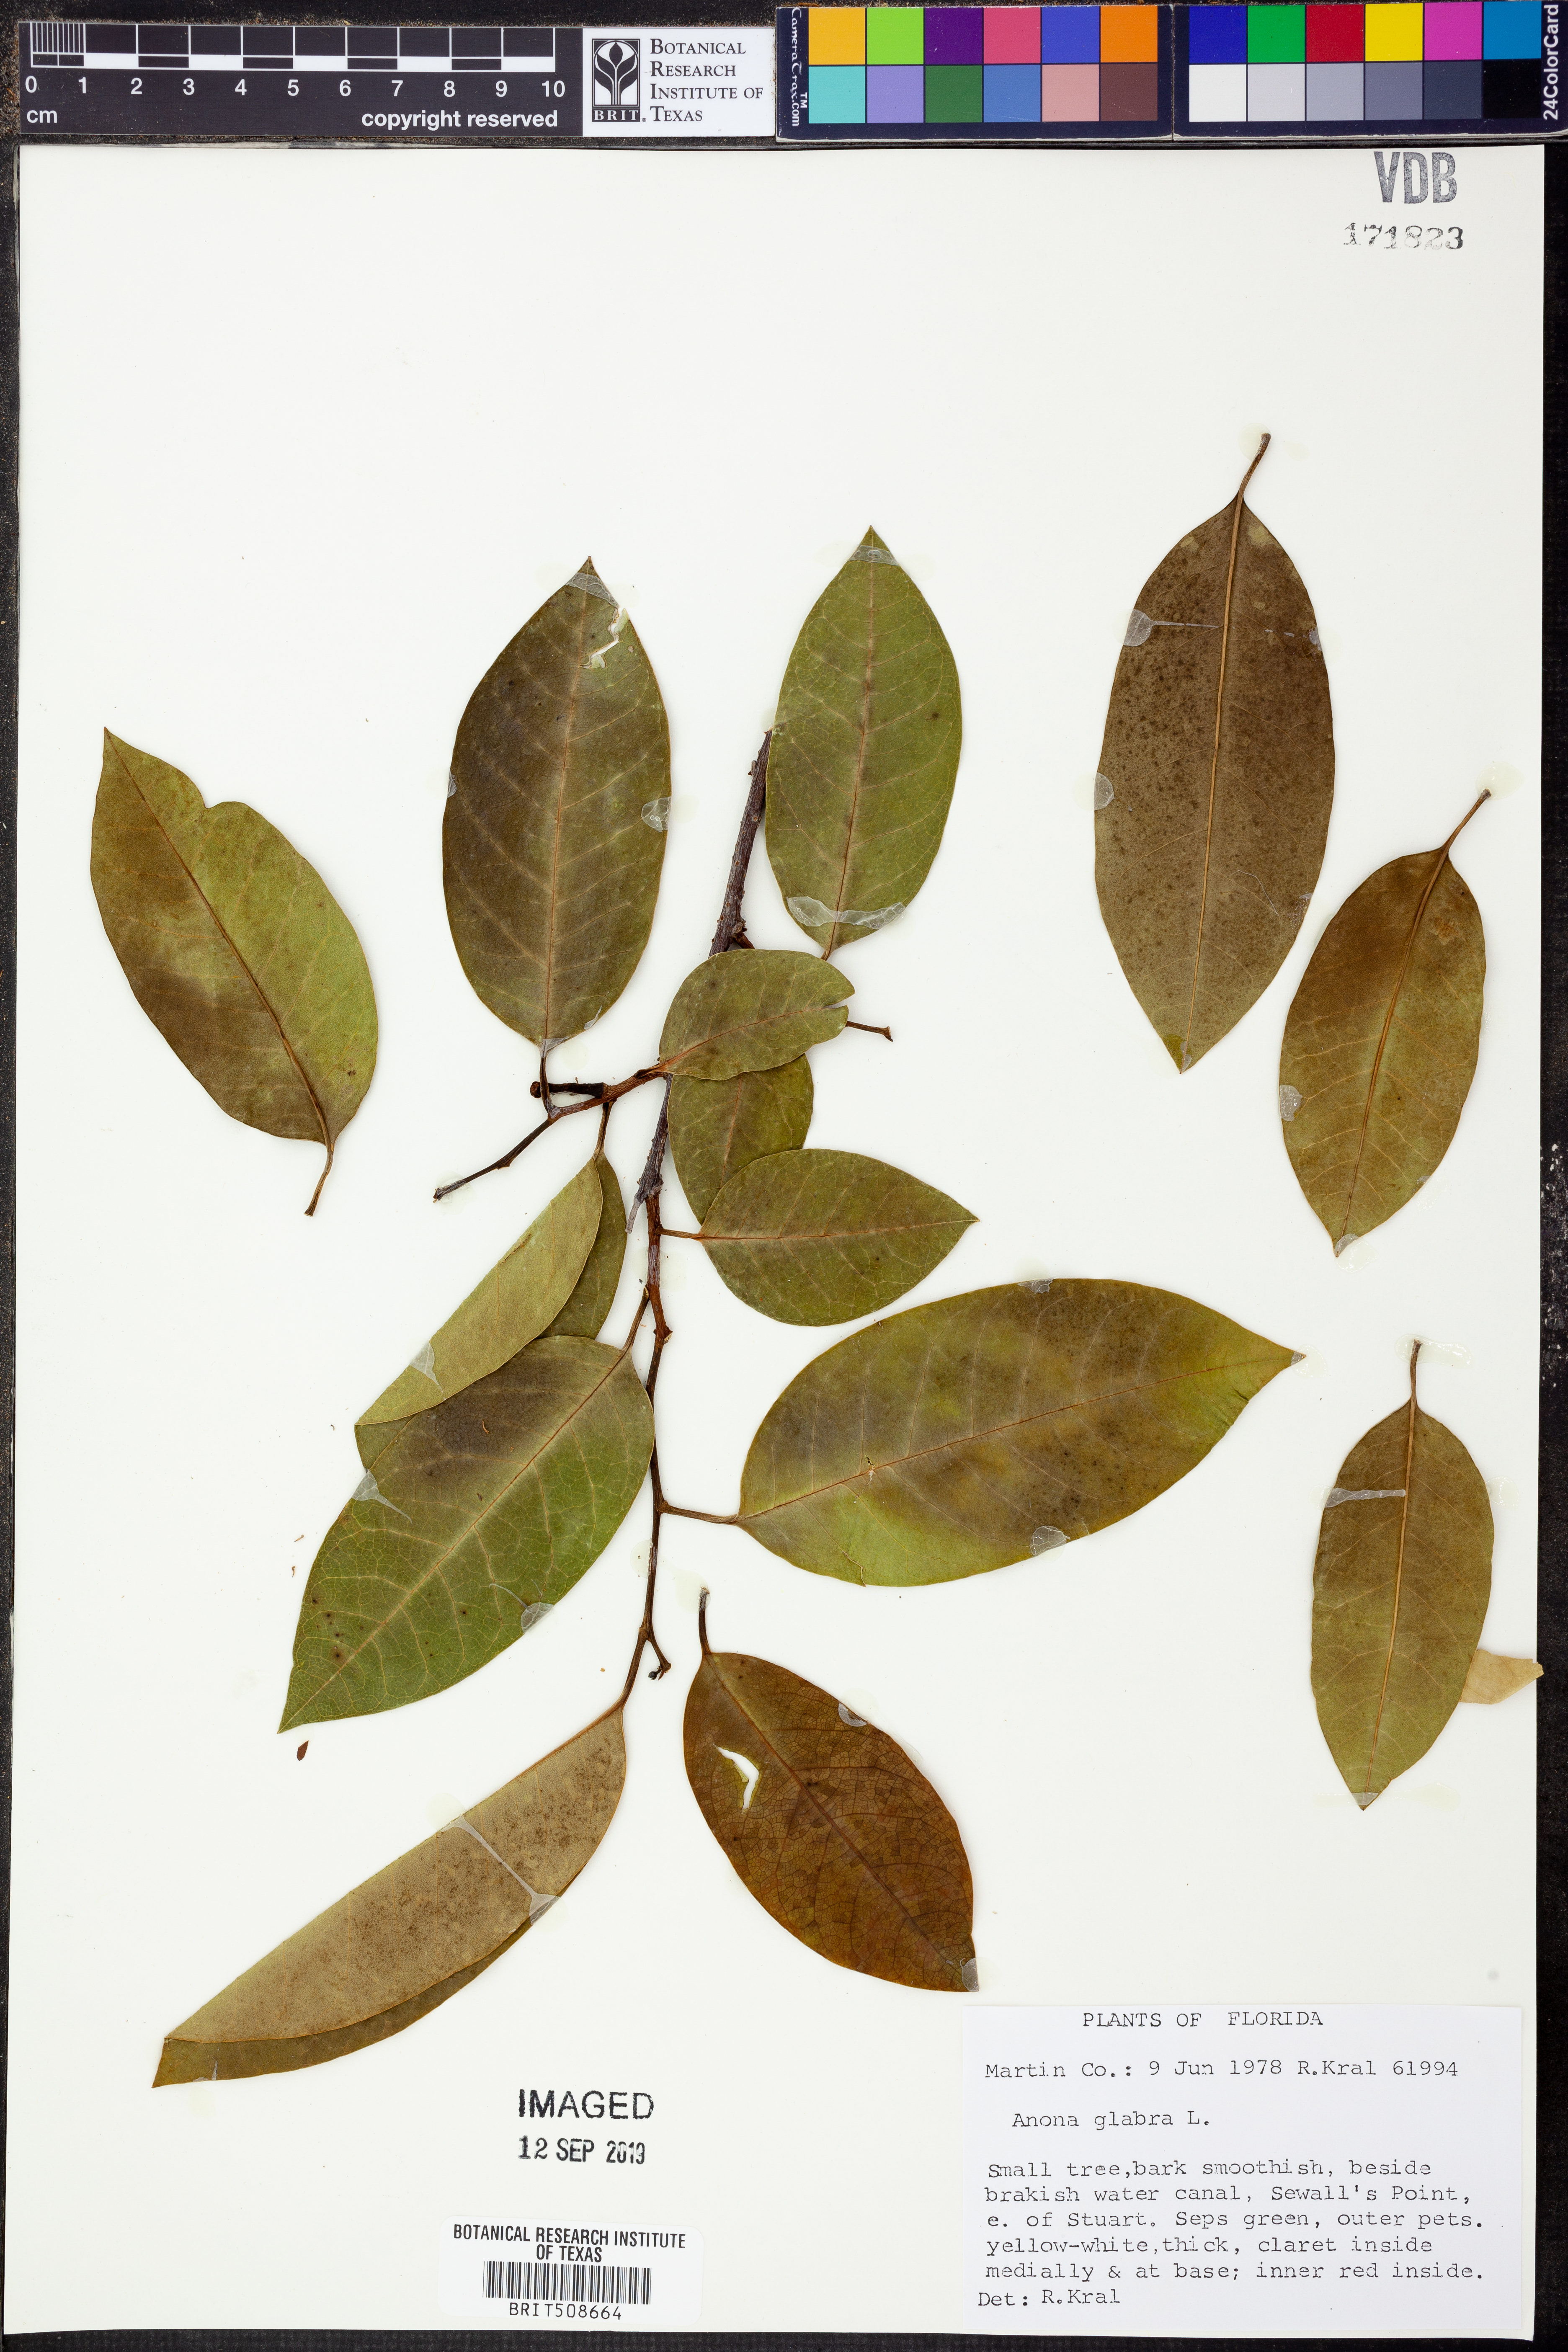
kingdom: Plantae
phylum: Tracheophyta
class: Magnoliopsida
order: Magnoliales
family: Annonaceae
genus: Annona
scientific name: Annona glabra
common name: Monkey apple
